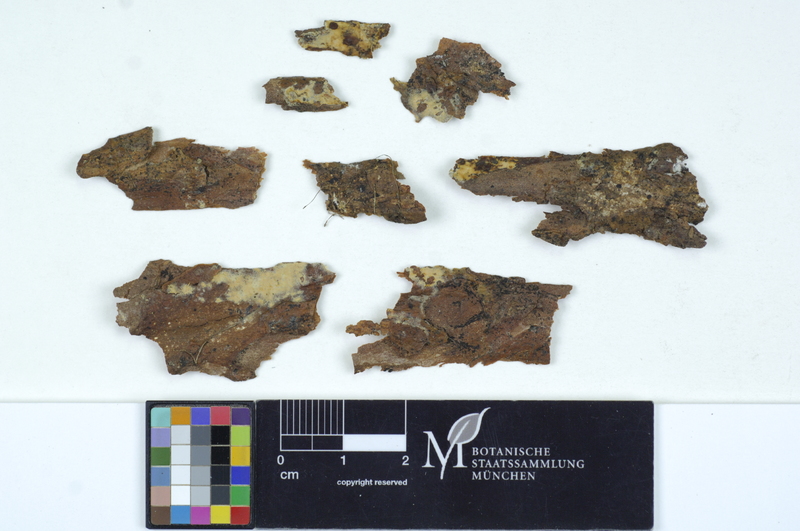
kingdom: Plantae
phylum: Tracheophyta
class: Pinopsida
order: Pinales
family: Pinaceae
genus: Pinus
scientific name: Pinus
